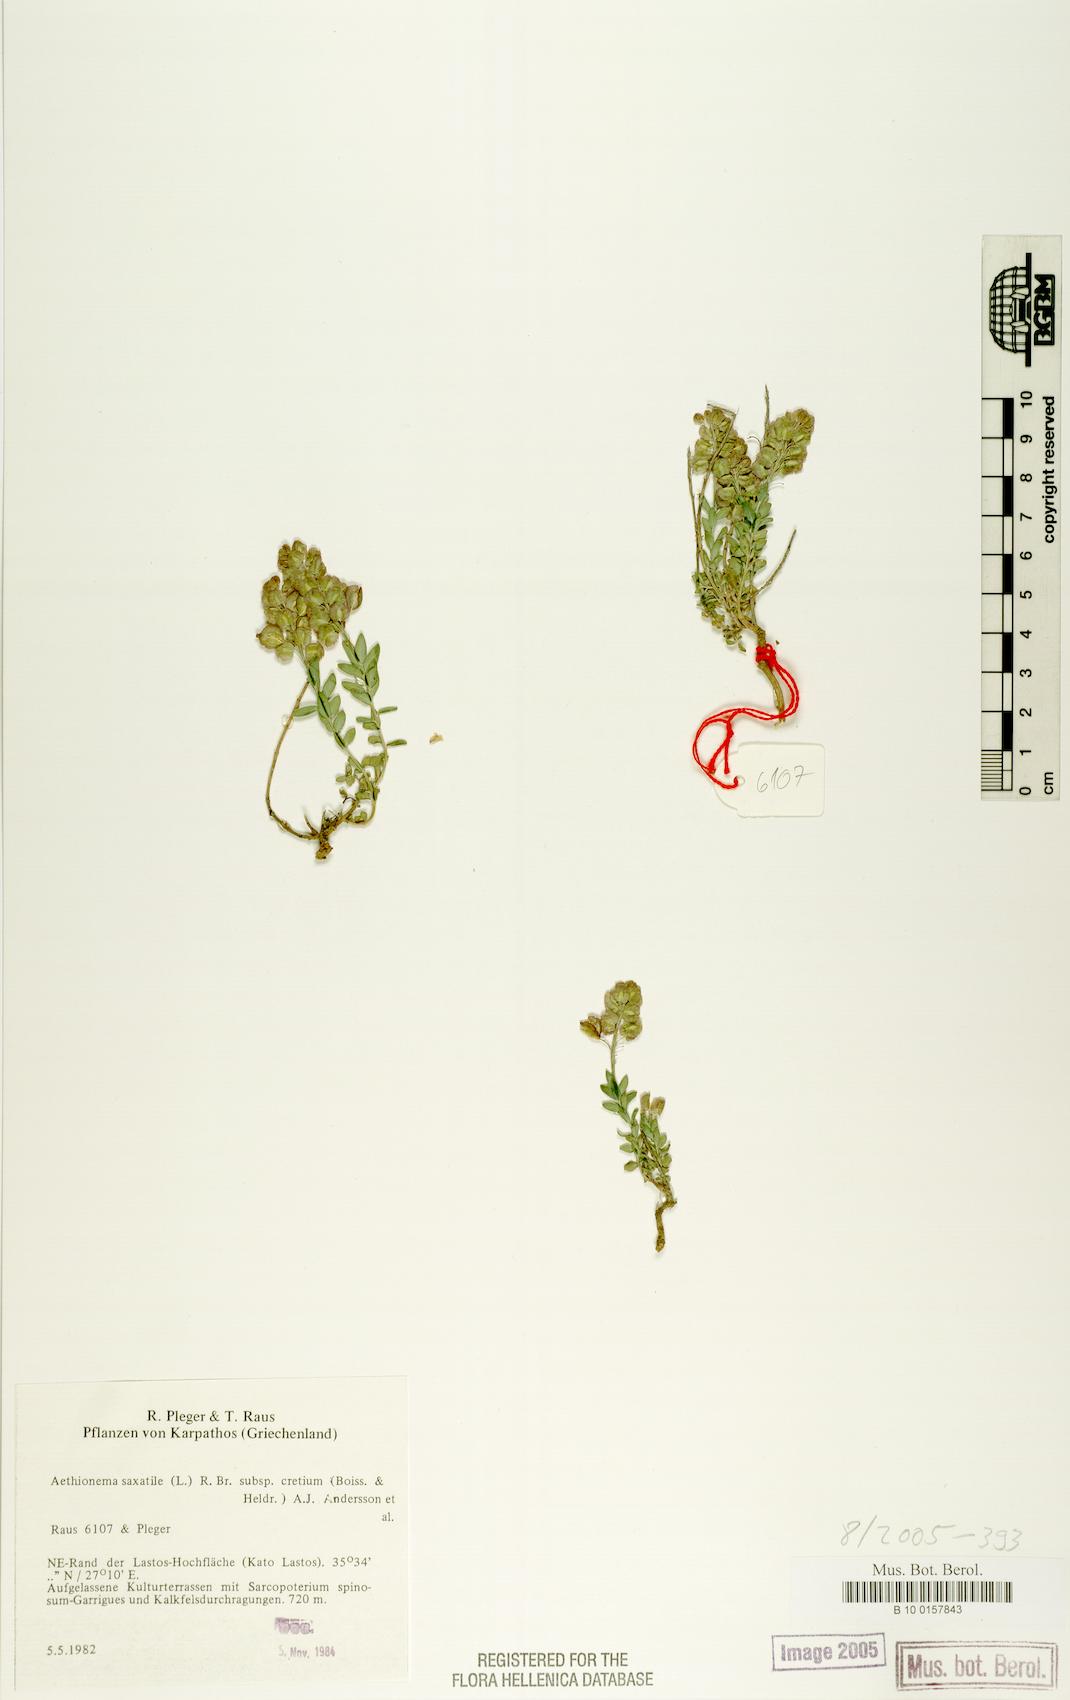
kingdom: Plantae
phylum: Tracheophyta
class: Magnoliopsida
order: Brassicales
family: Brassicaceae
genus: Aethionema
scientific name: Aethionema saxatile
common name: Burnt candytuft
